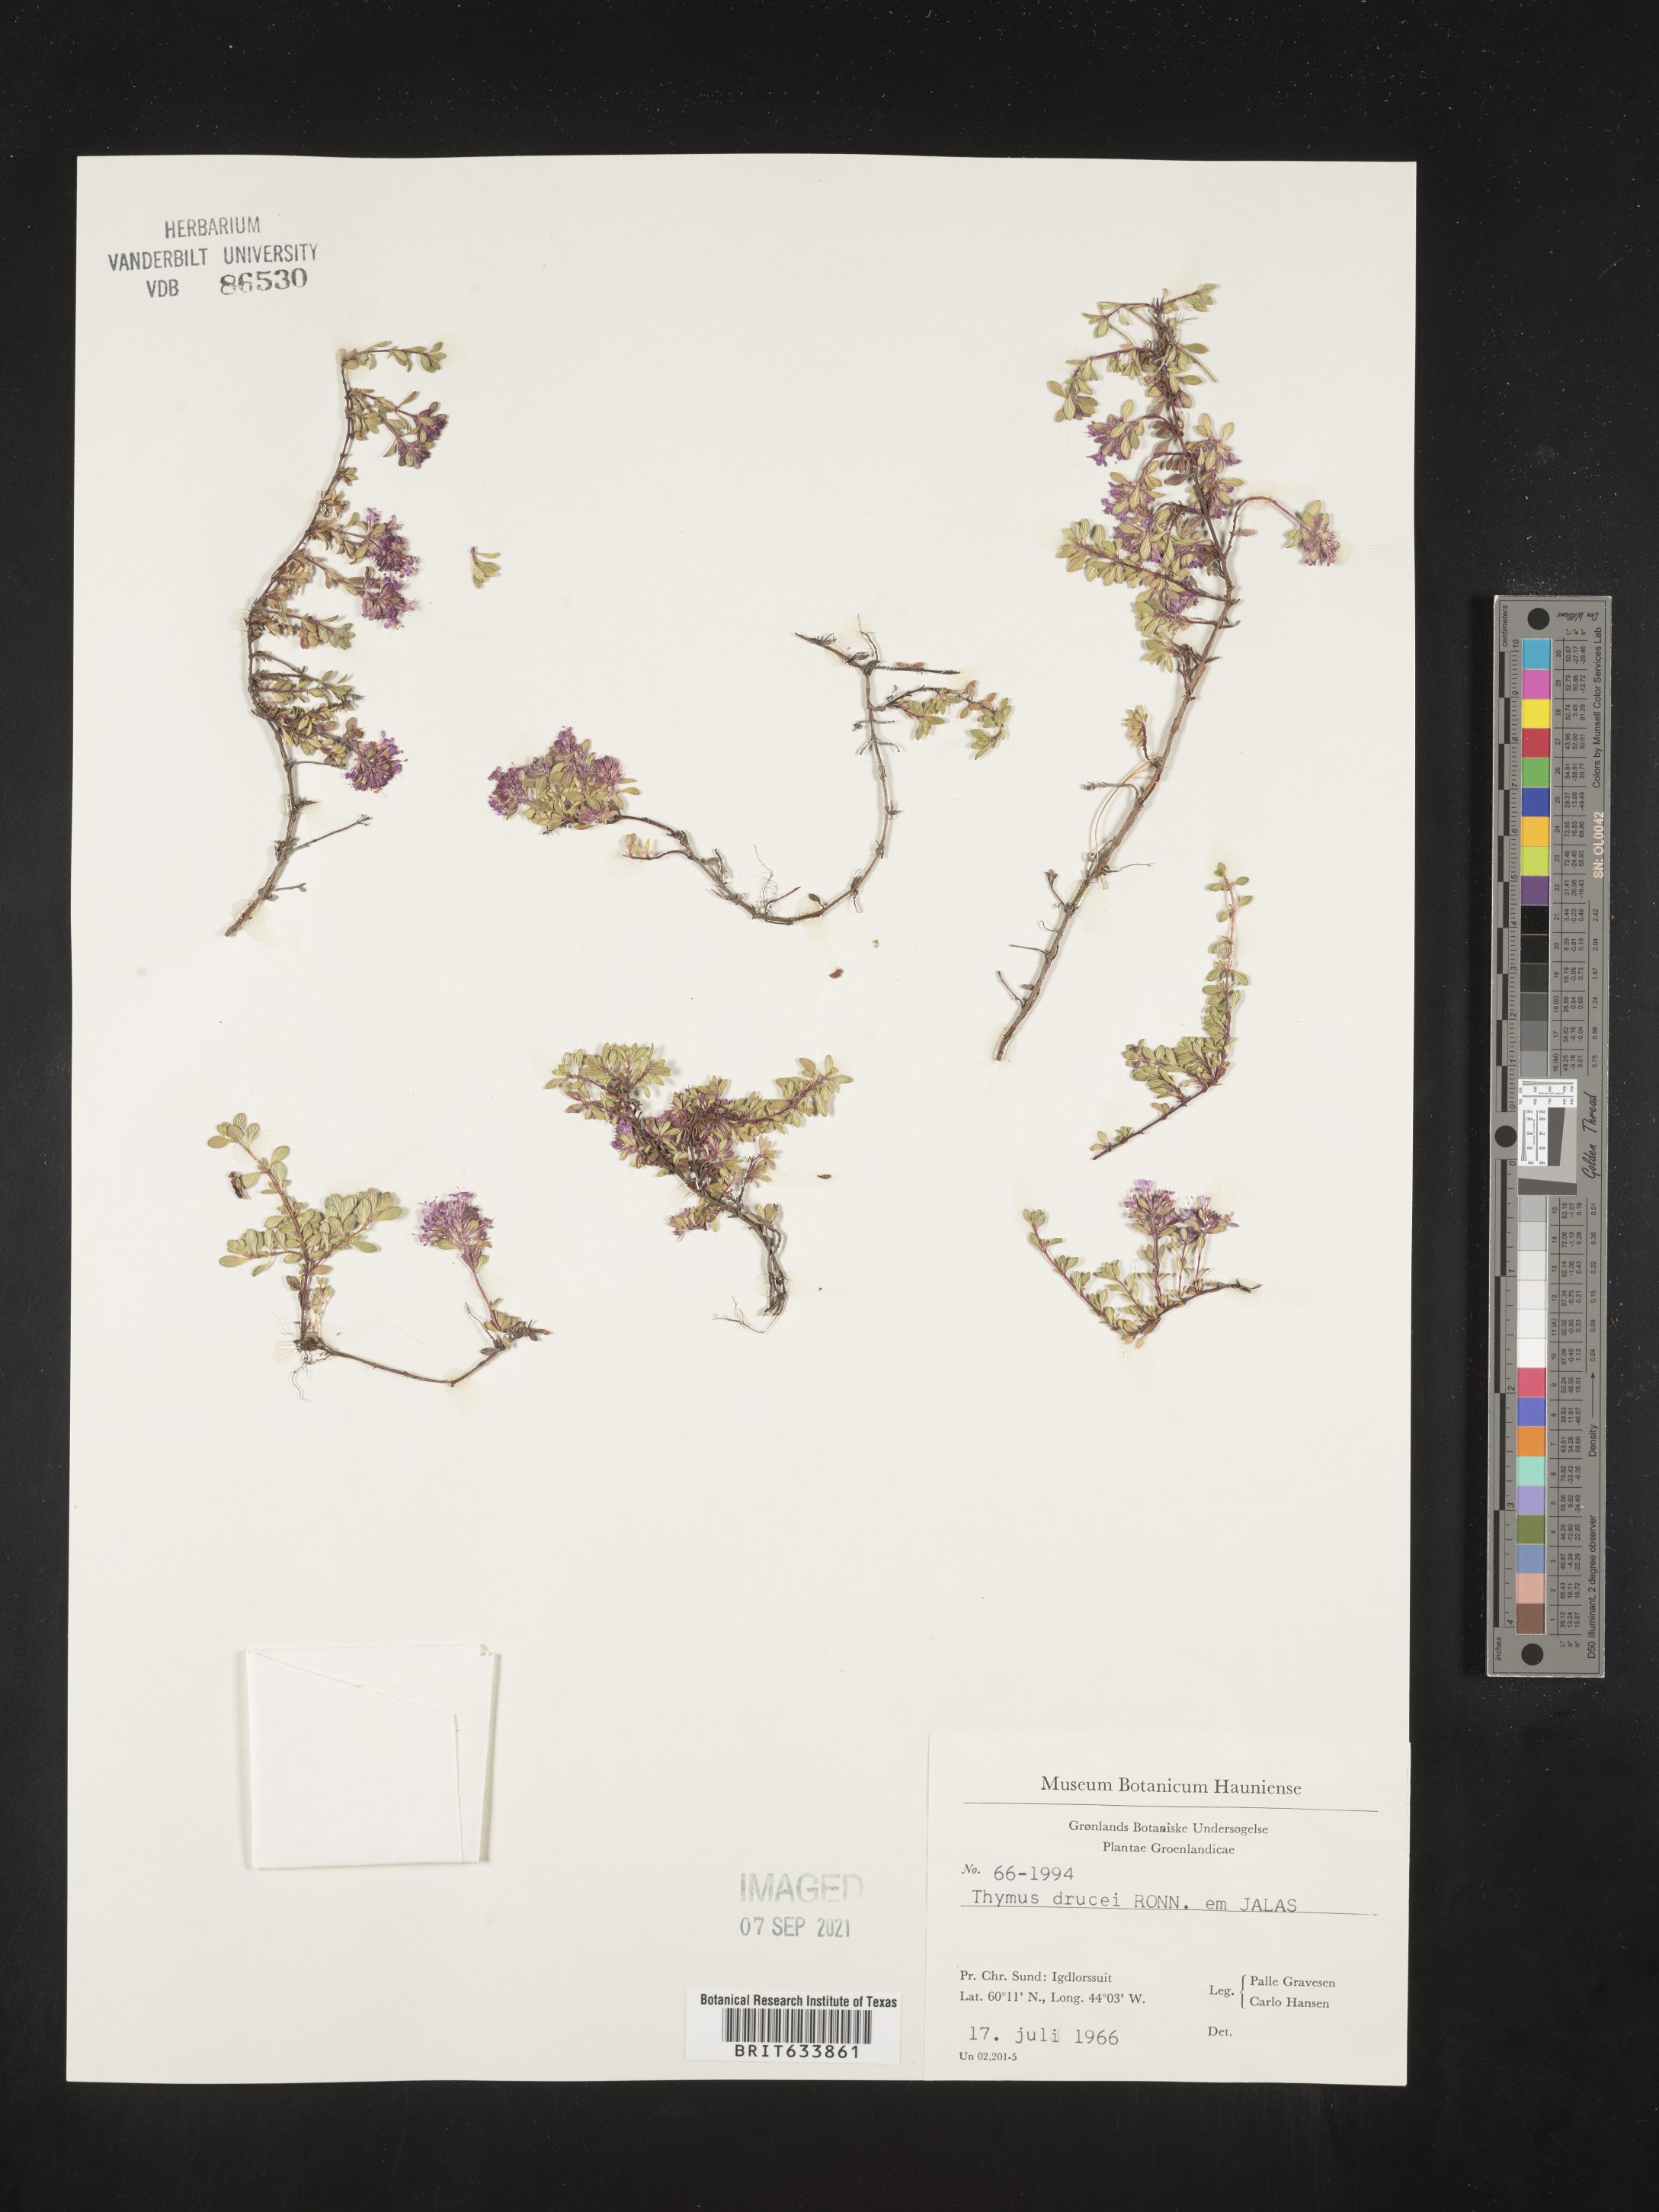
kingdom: Plantae
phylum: Tracheophyta
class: Magnoliopsida
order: Lamiales
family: Lamiaceae
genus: Thymus
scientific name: Thymus
